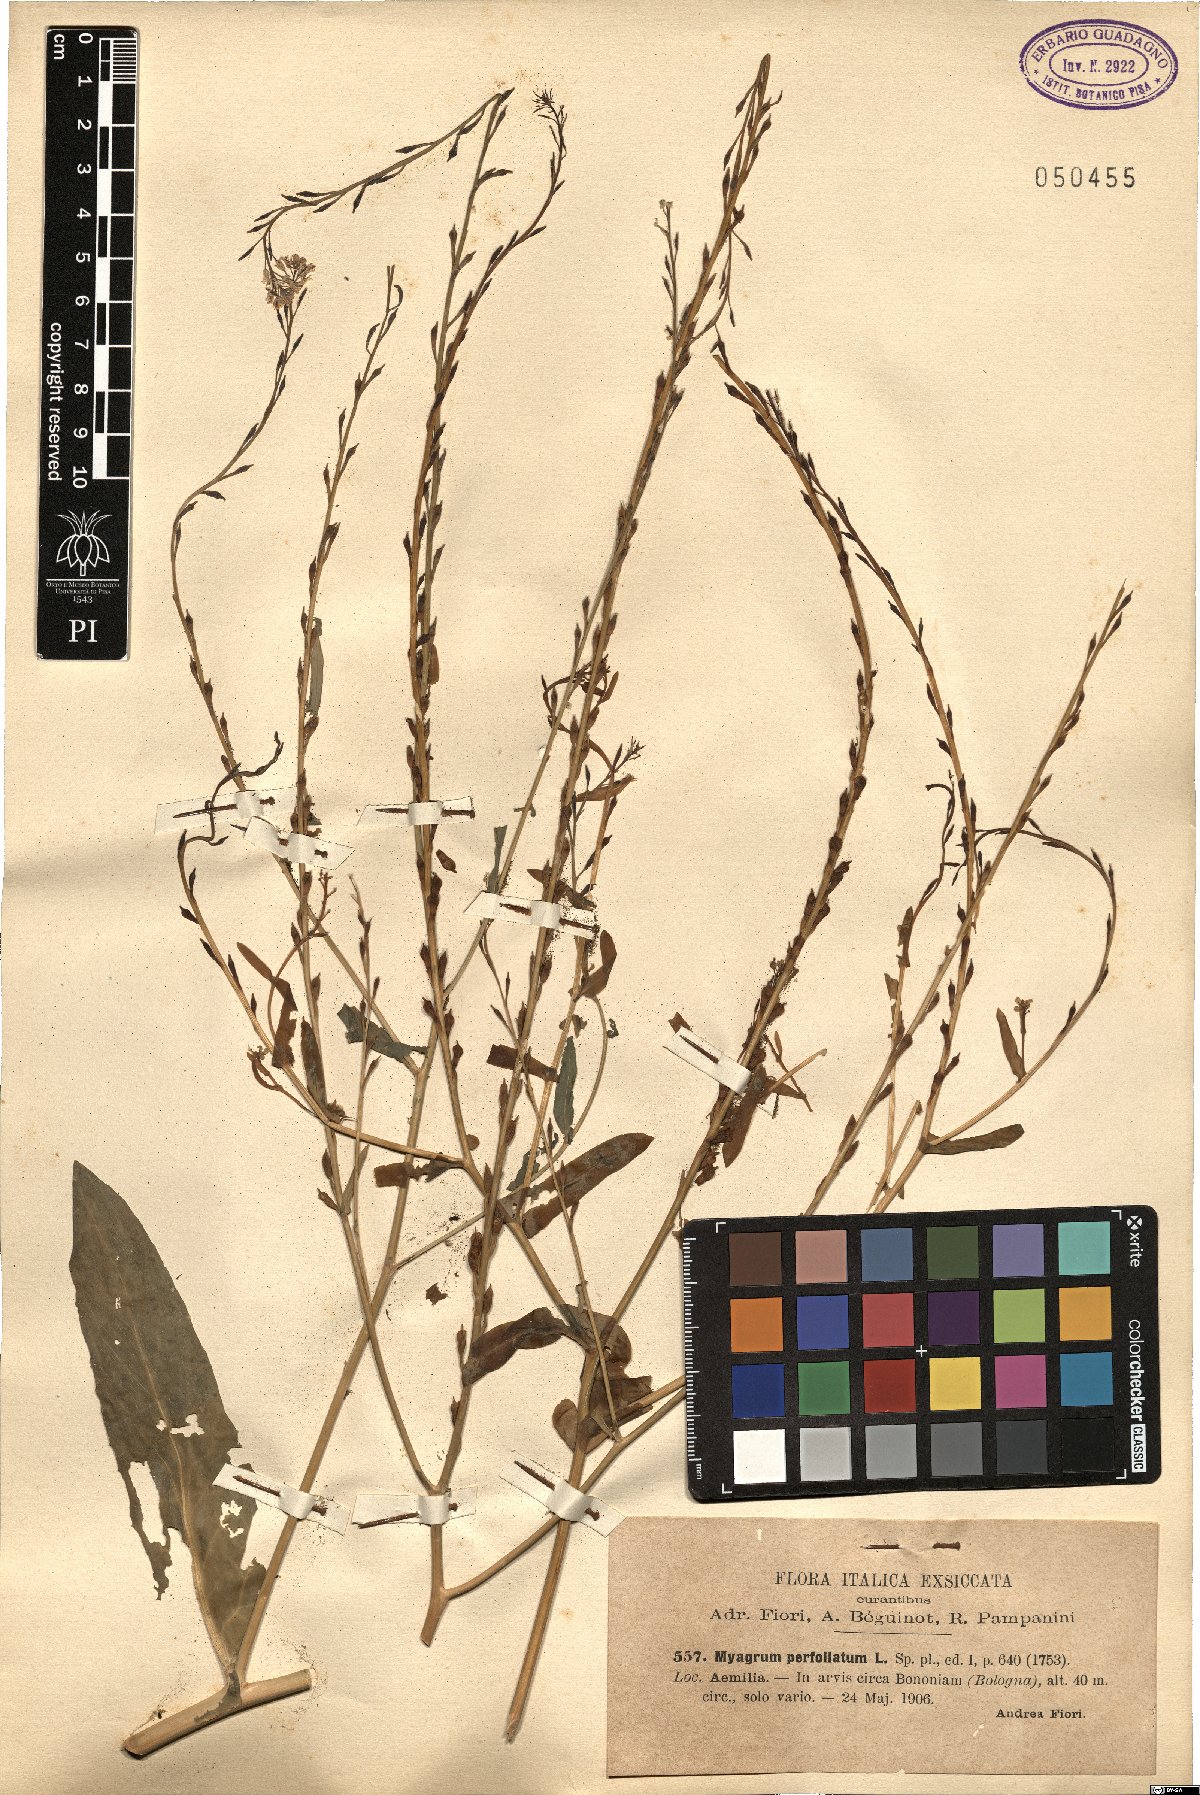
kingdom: Plantae
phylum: Tracheophyta
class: Magnoliopsida
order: Brassicales
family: Brassicaceae
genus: Myagrum
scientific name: Myagrum perfoliatum
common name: Mitre cress
